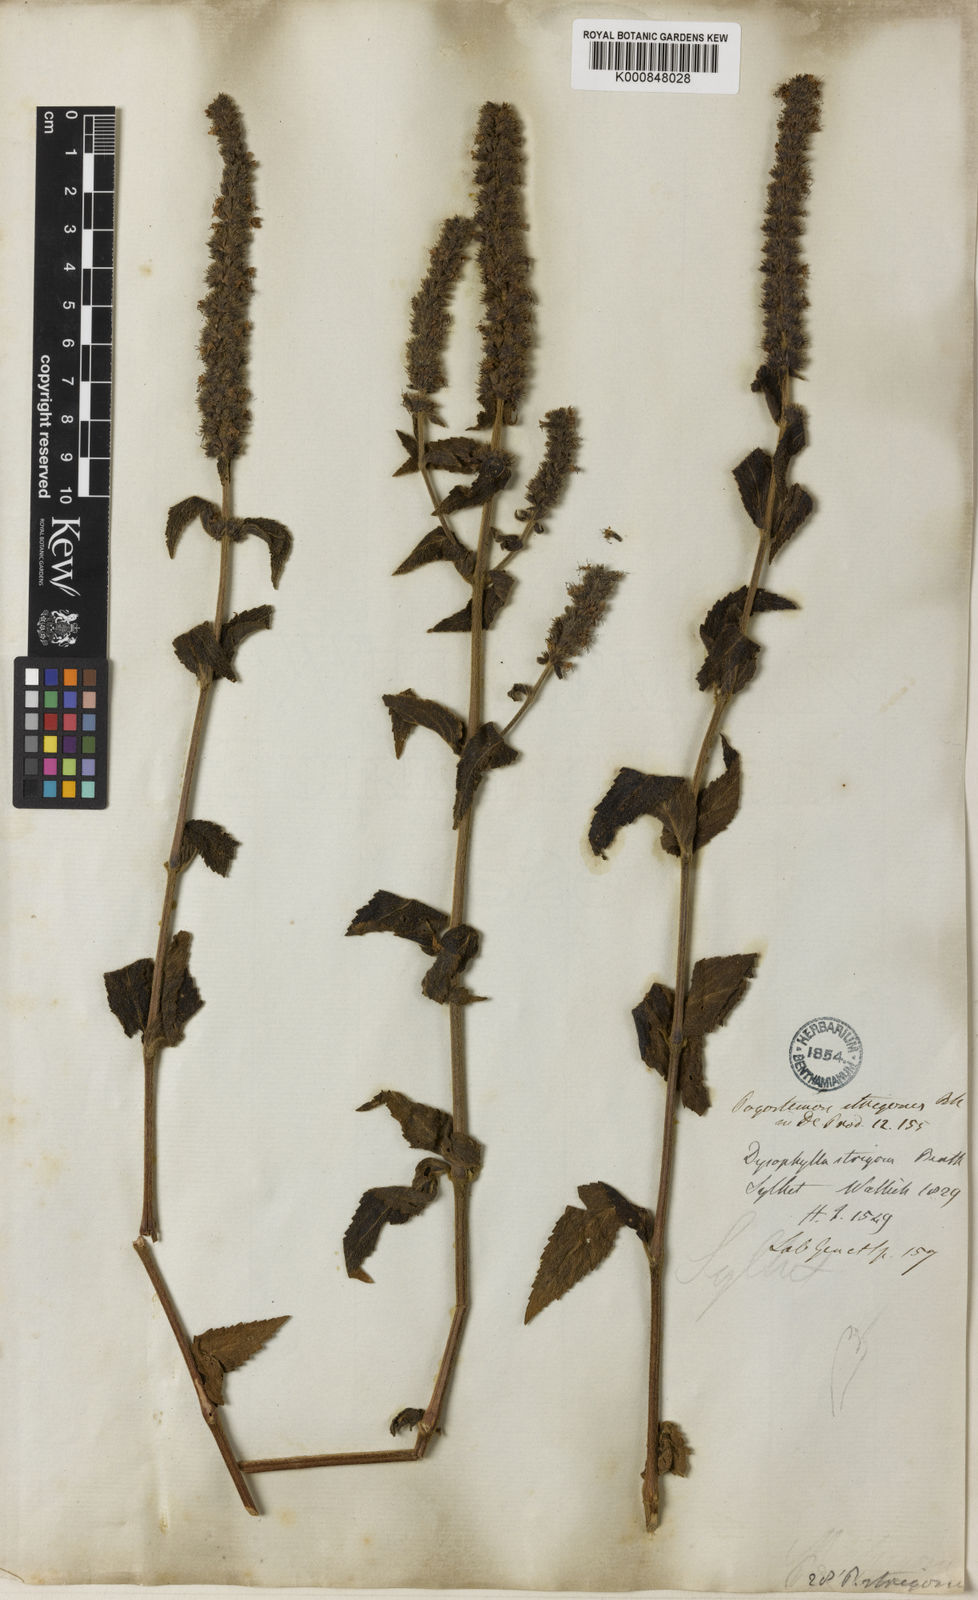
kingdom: Plantae
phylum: Tracheophyta
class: Magnoliopsida
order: Lamiales
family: Lamiaceae
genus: Pogostemon
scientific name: Pogostemon strigosus
